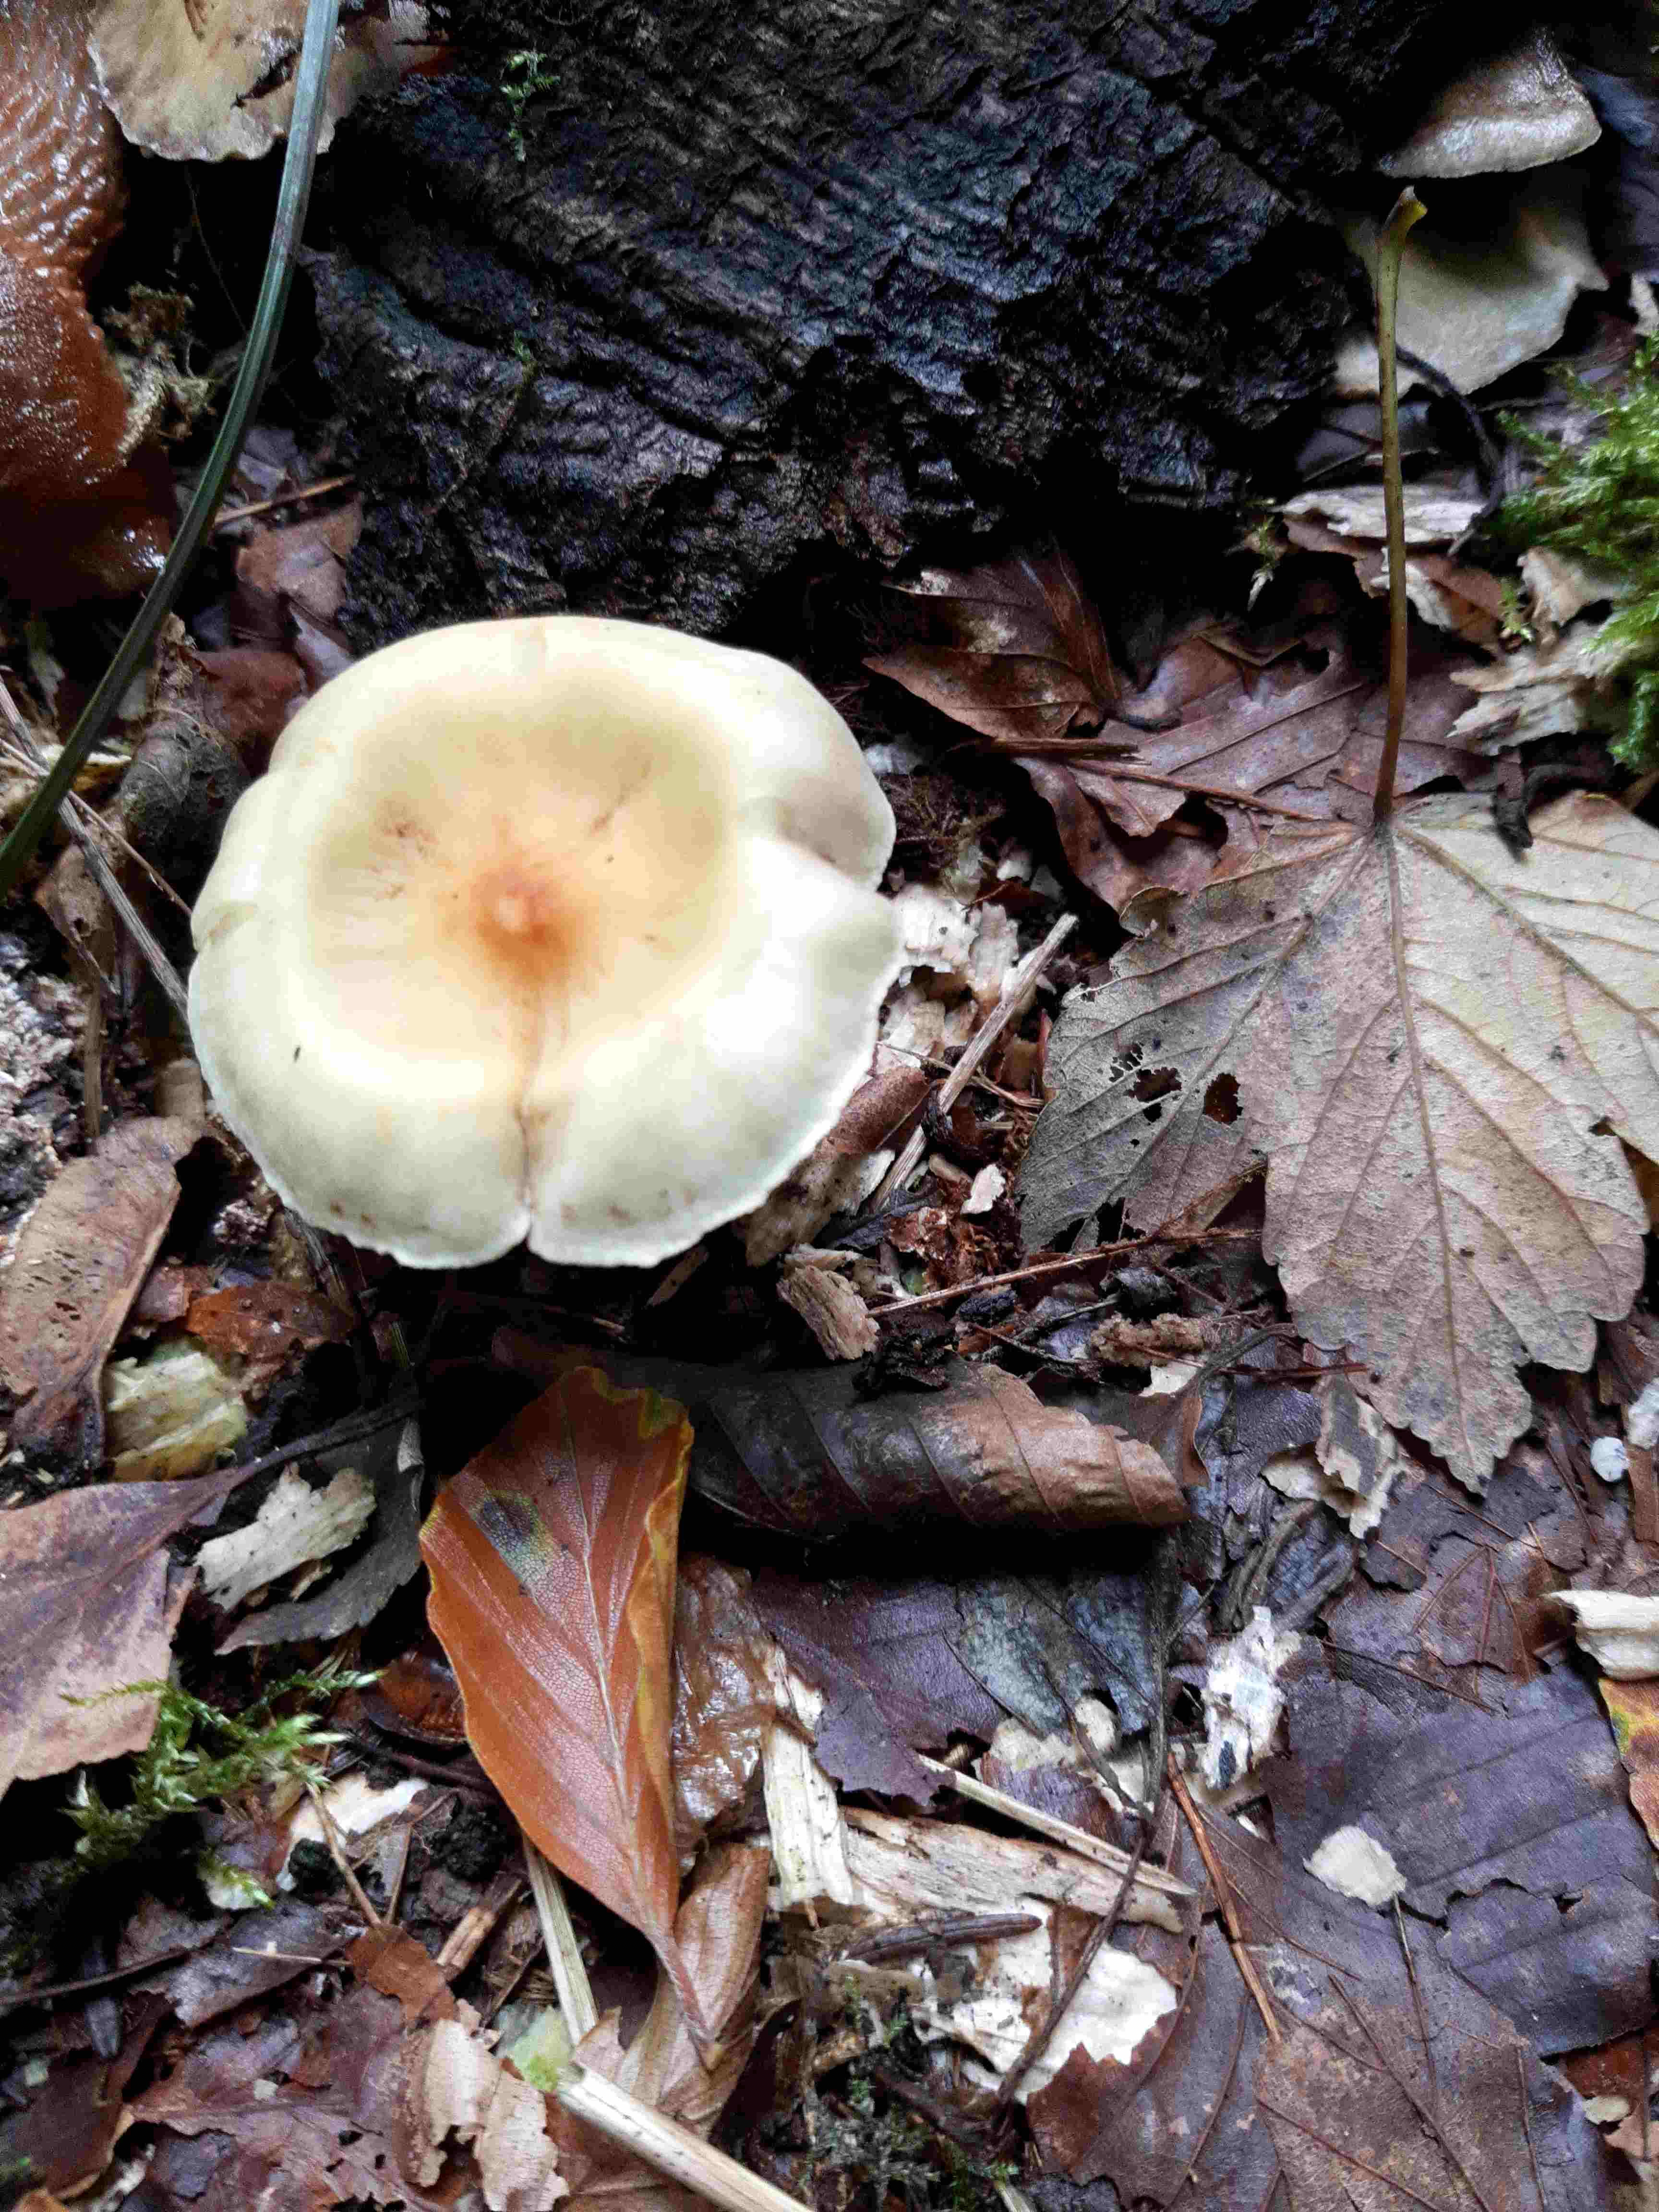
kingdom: Fungi
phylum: Basidiomycota
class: Agaricomycetes
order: Agaricales
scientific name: Agaricales
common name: champignonordenen
